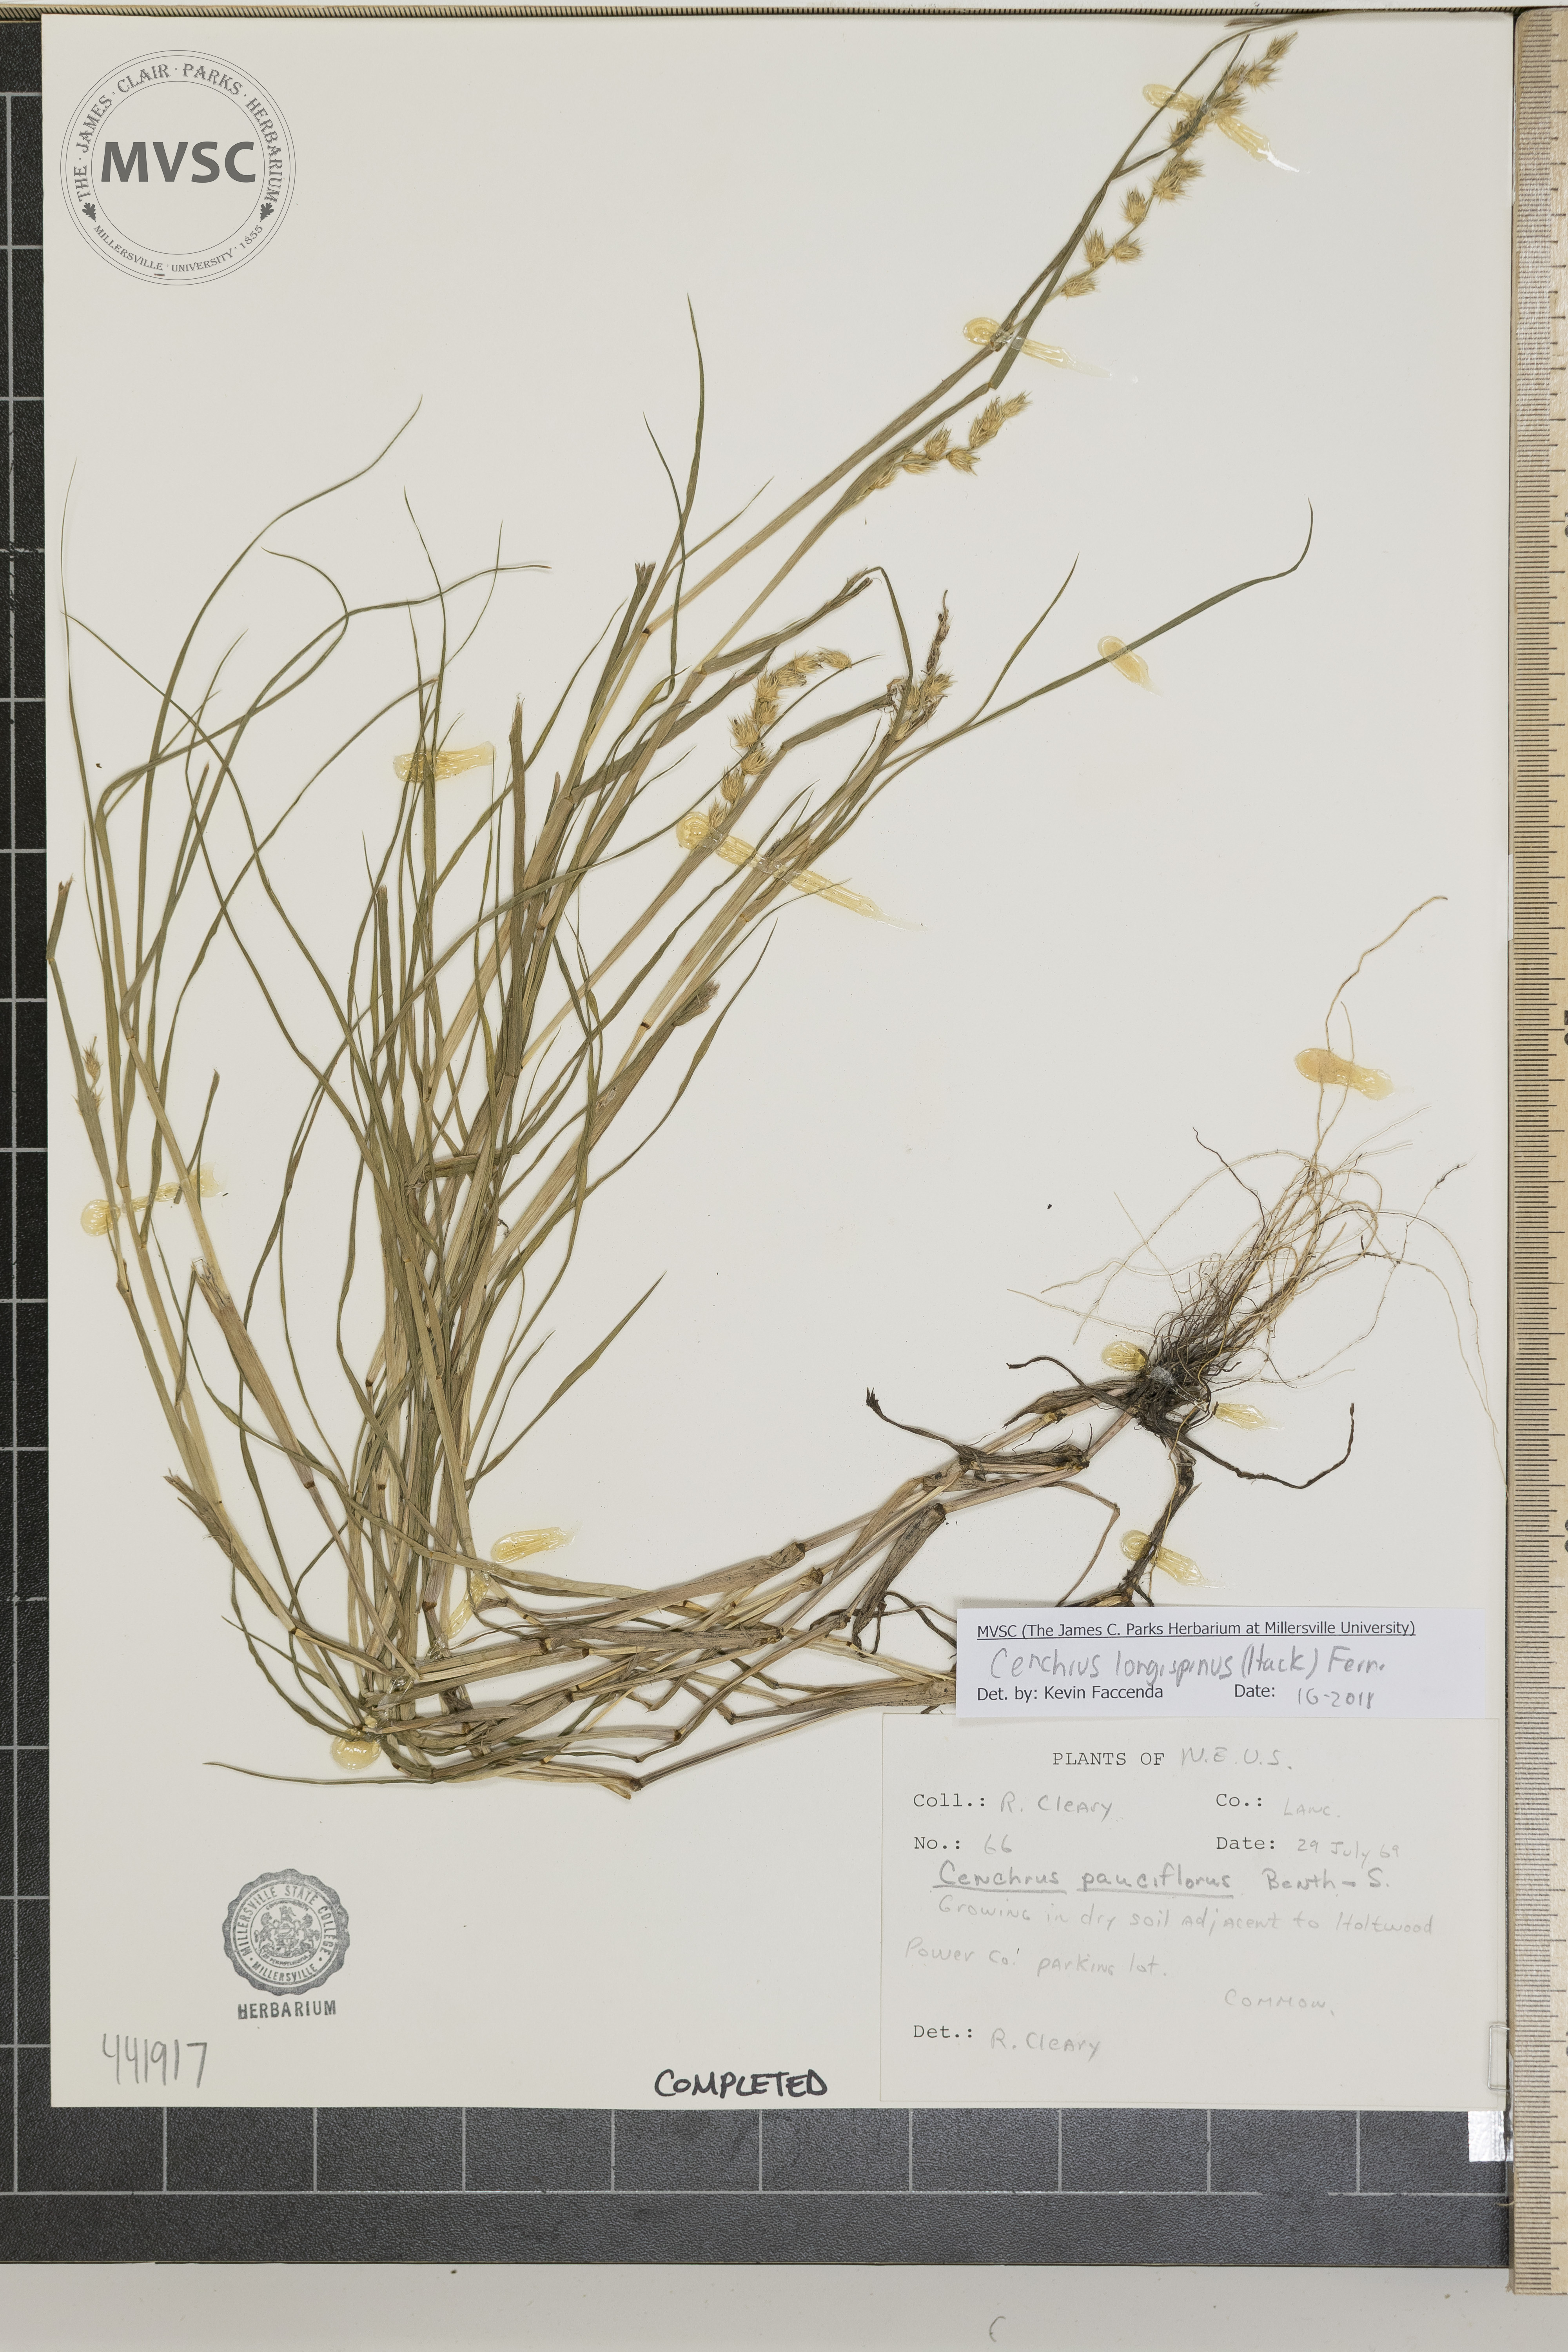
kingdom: Plantae
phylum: Tracheophyta
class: Liliopsida
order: Poales
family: Poaceae
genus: Cenchrus
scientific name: Cenchrus longispinus
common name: Mat sandbur
